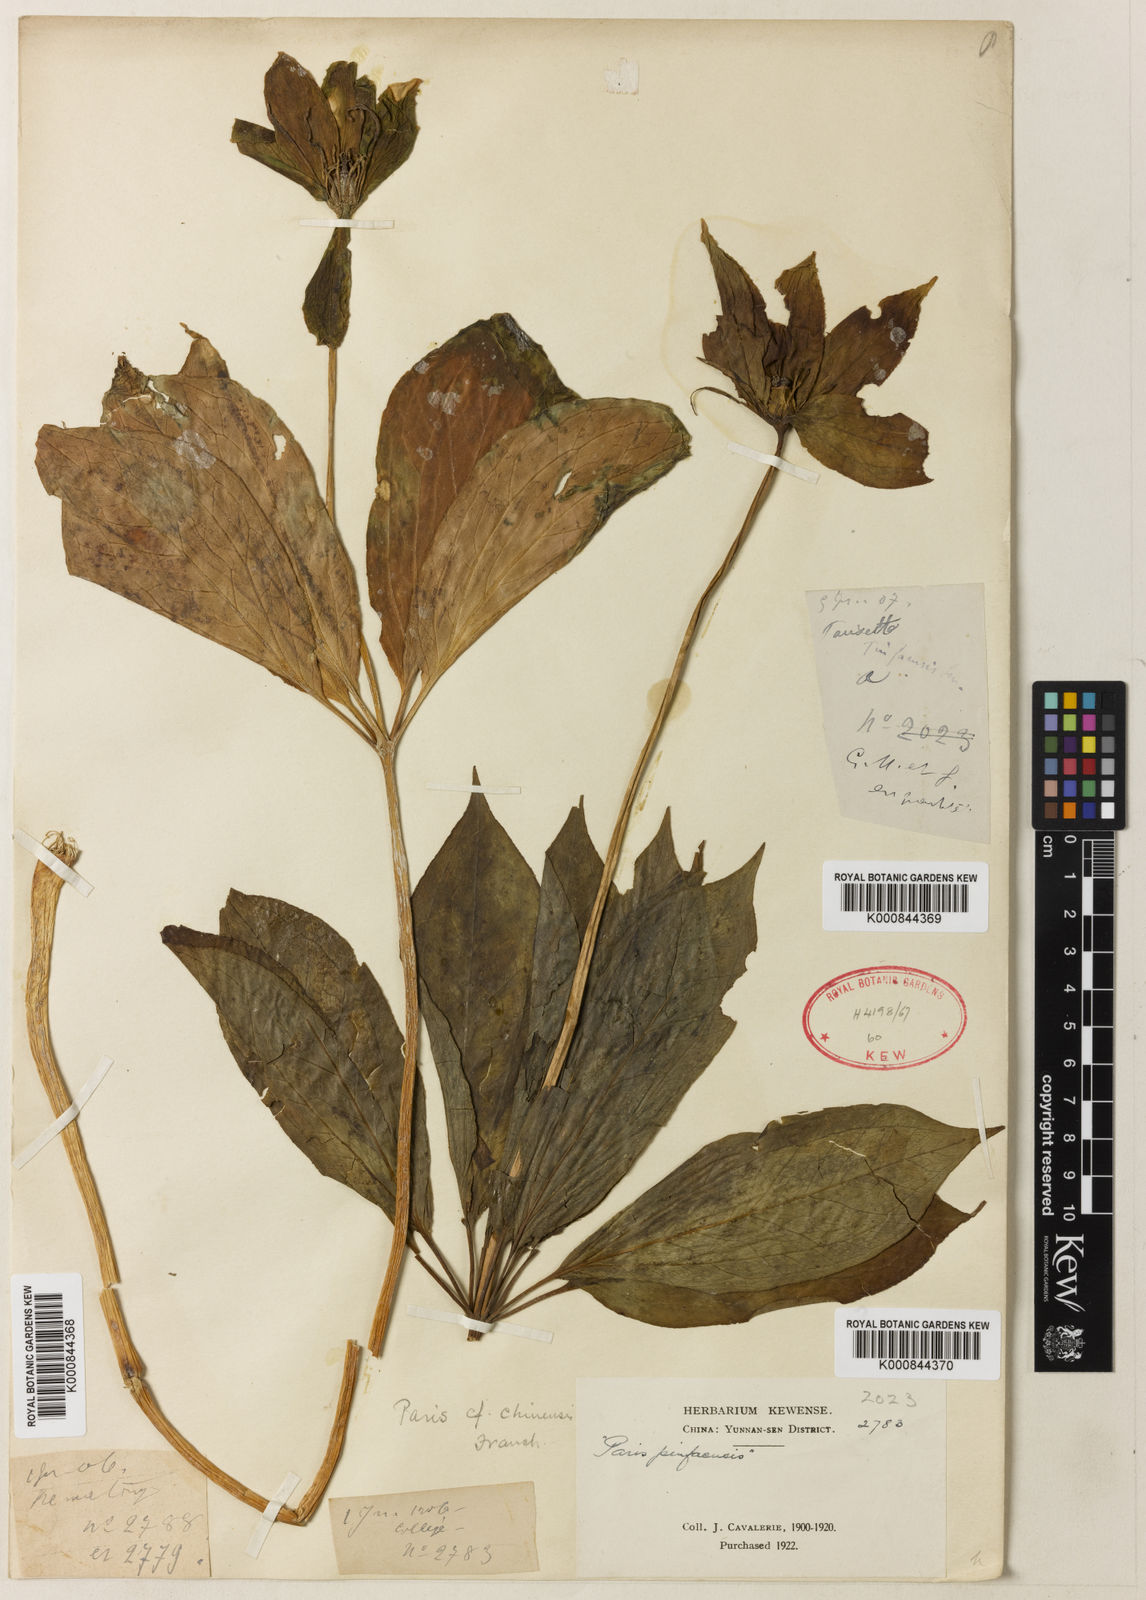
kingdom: Plantae
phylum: Tracheophyta
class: Liliopsida
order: Liliales
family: Melanthiaceae
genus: Paris
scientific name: Paris chinensis
